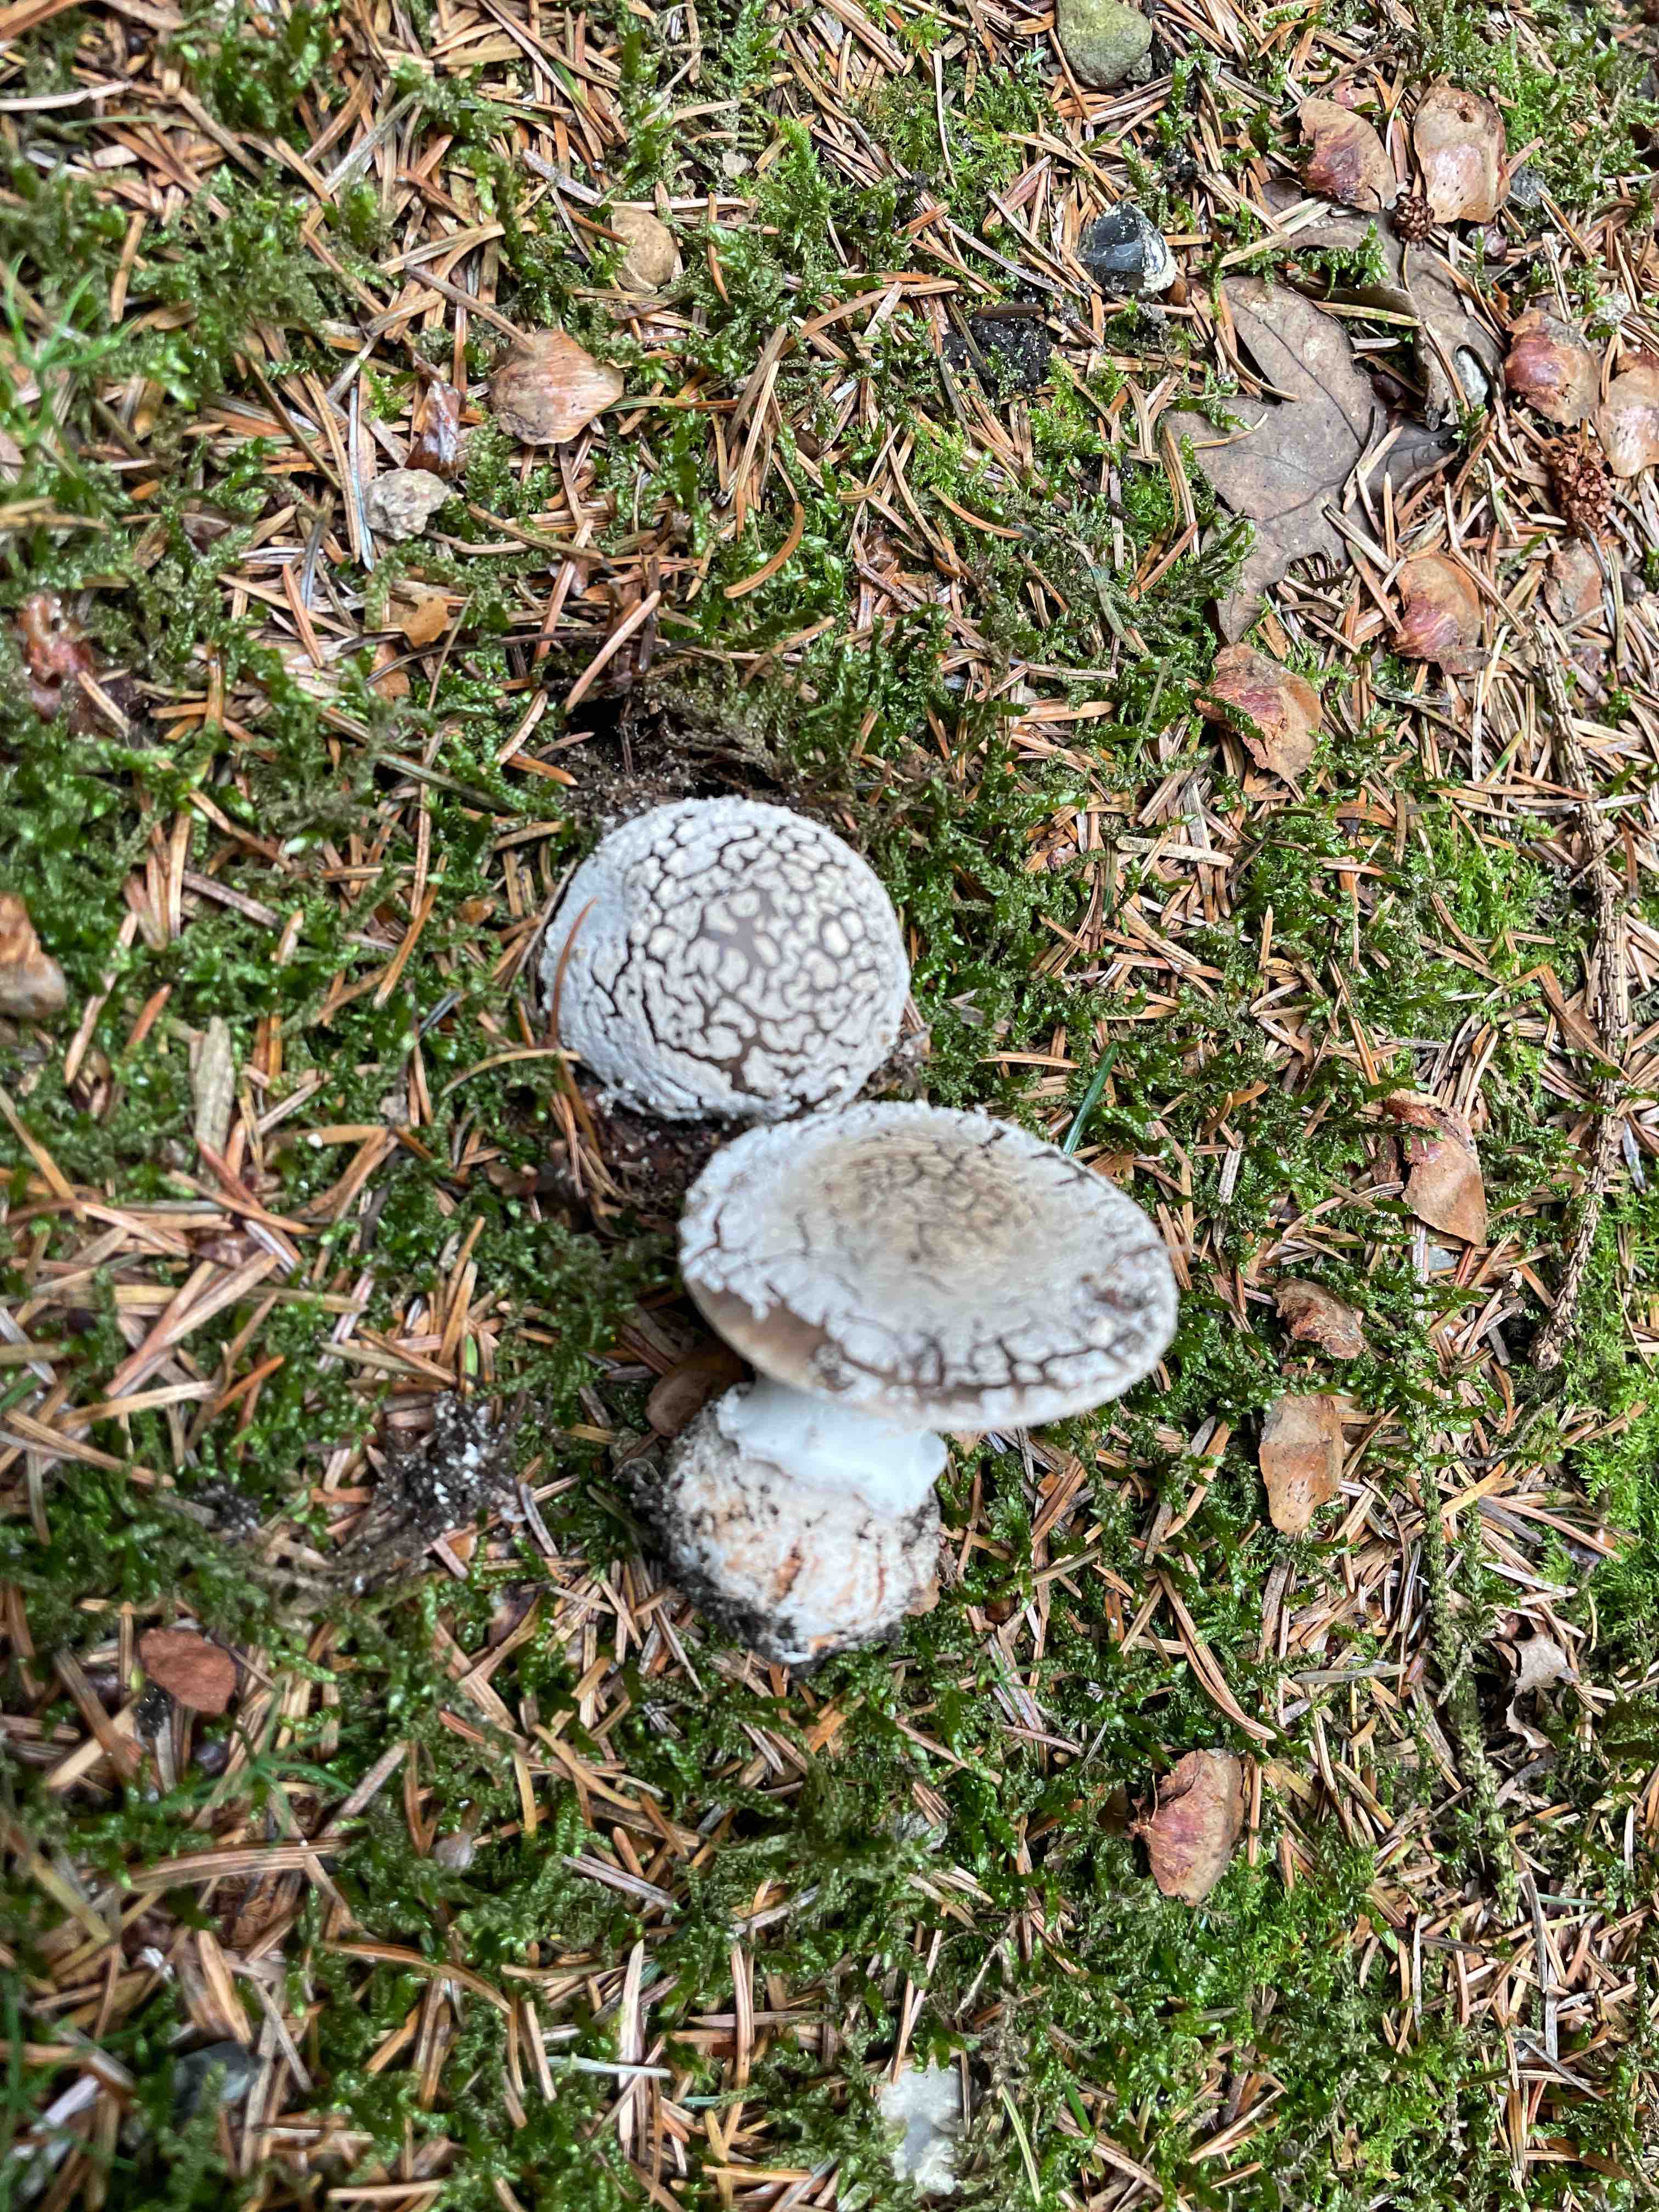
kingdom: Fungi
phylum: Basidiomycota
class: Agaricomycetes
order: Agaricales
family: Amanitaceae
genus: Amanita
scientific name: Amanita
